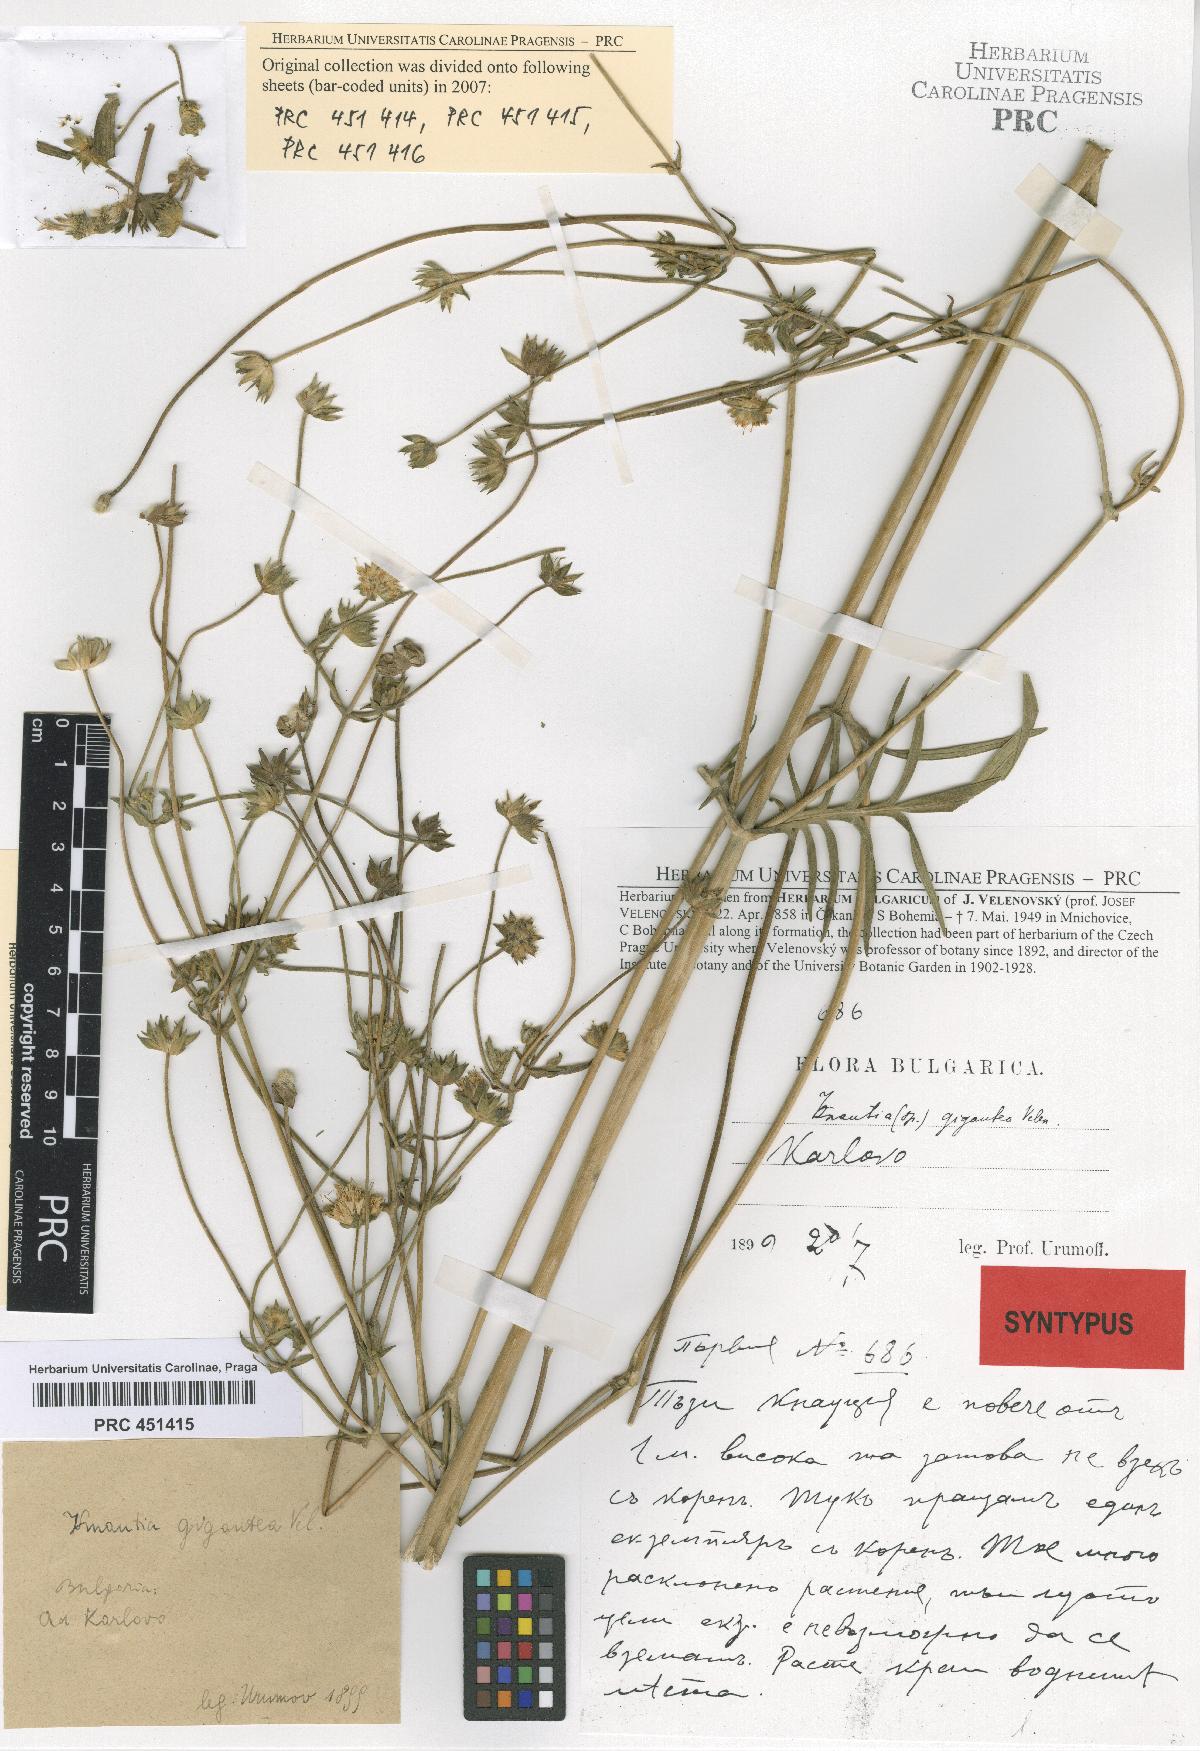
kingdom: Plantae
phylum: Tracheophyta
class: Magnoliopsida
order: Dipsacales
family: Caprifoliaceae
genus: Knautia
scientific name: Knautia collina
